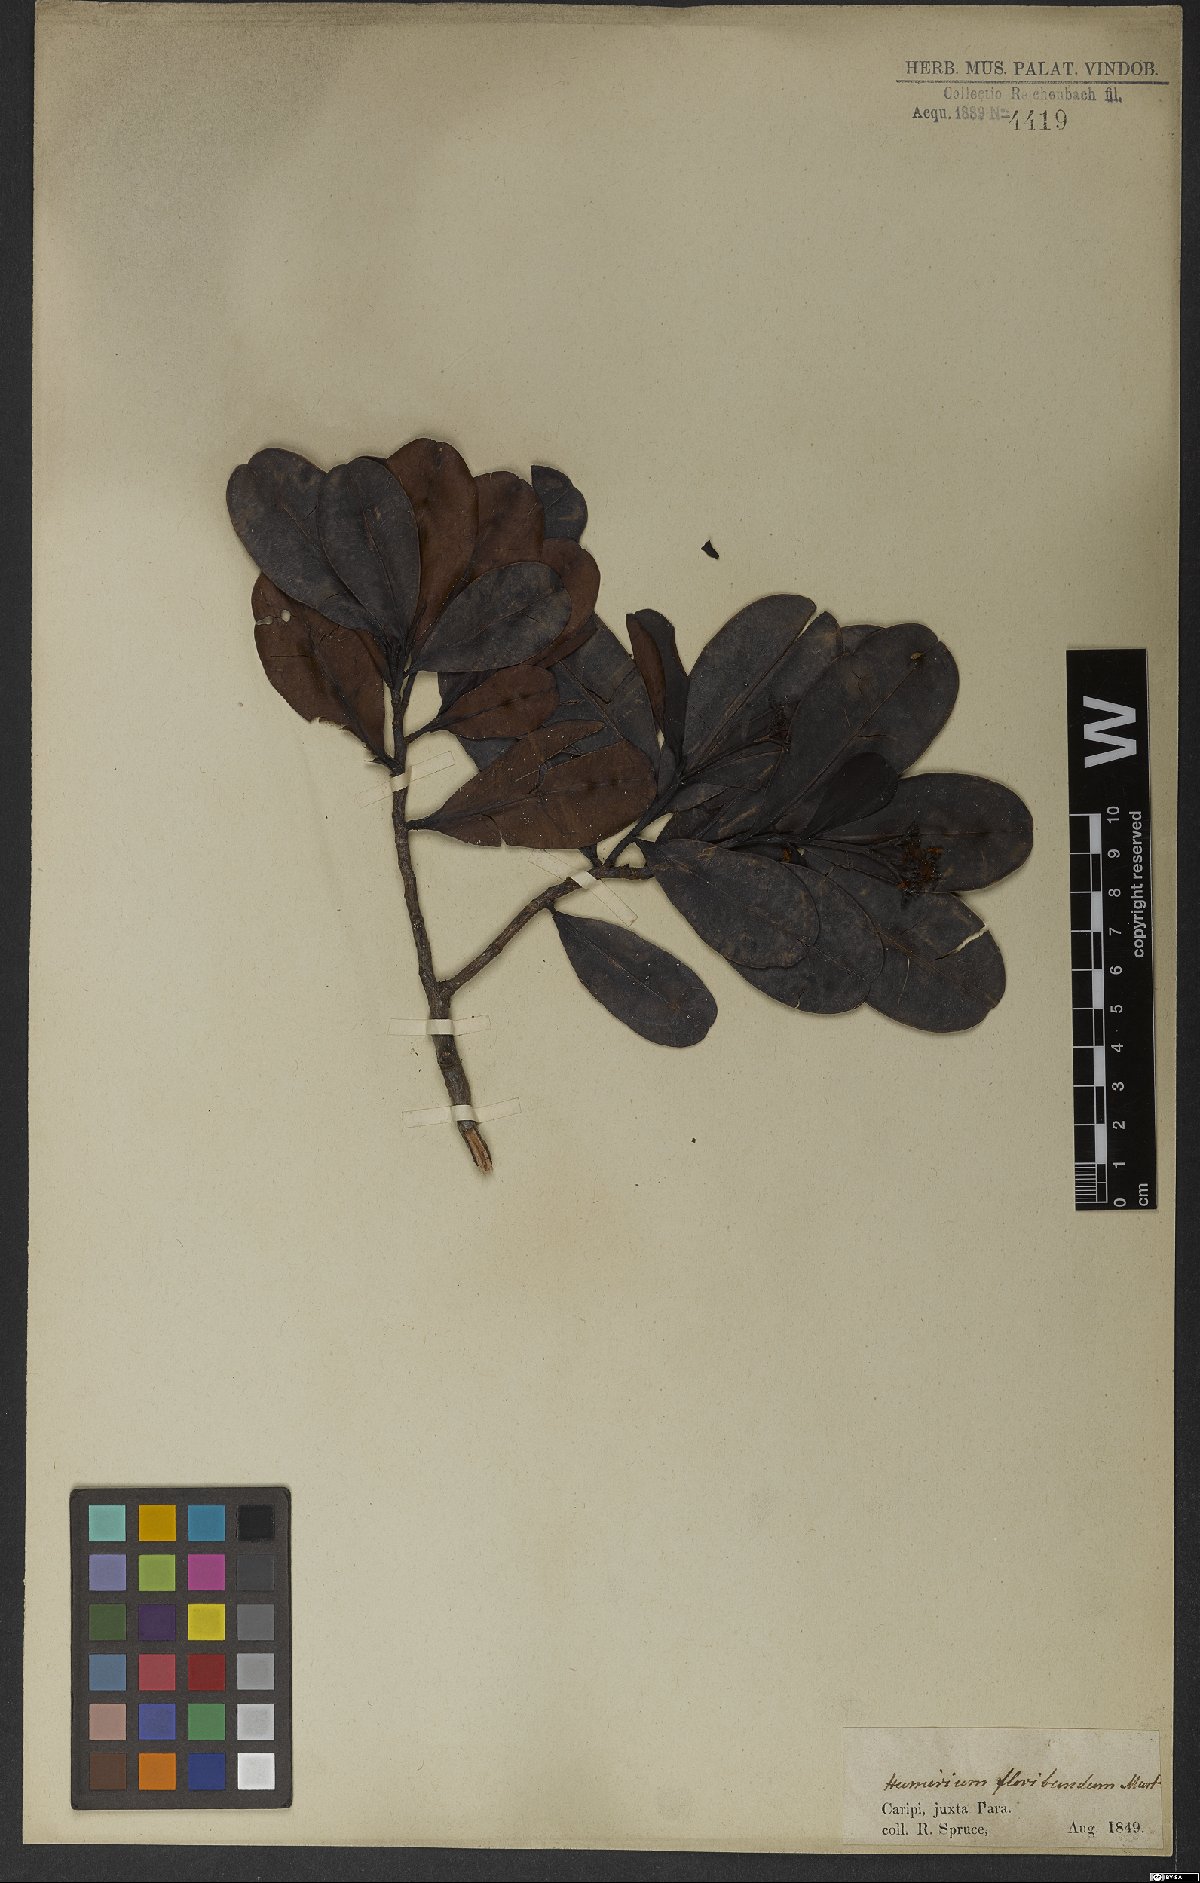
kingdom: Plantae
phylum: Tracheophyta
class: Magnoliopsida
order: Malpighiales
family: Humiriaceae
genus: Humiria
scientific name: Humiria balsamifera
